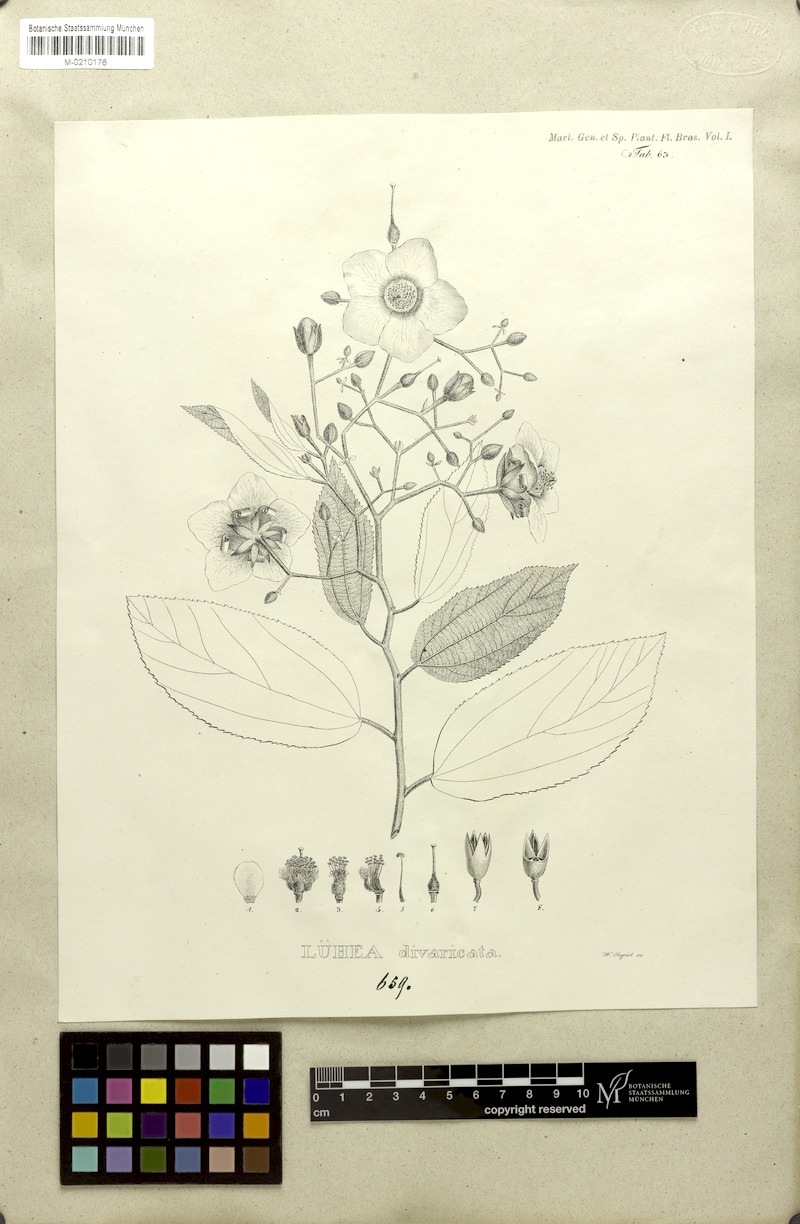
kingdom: Plantae
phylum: Tracheophyta
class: Magnoliopsida
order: Malvales
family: Malvaceae
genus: Luehea
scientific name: Luehea divaricata
